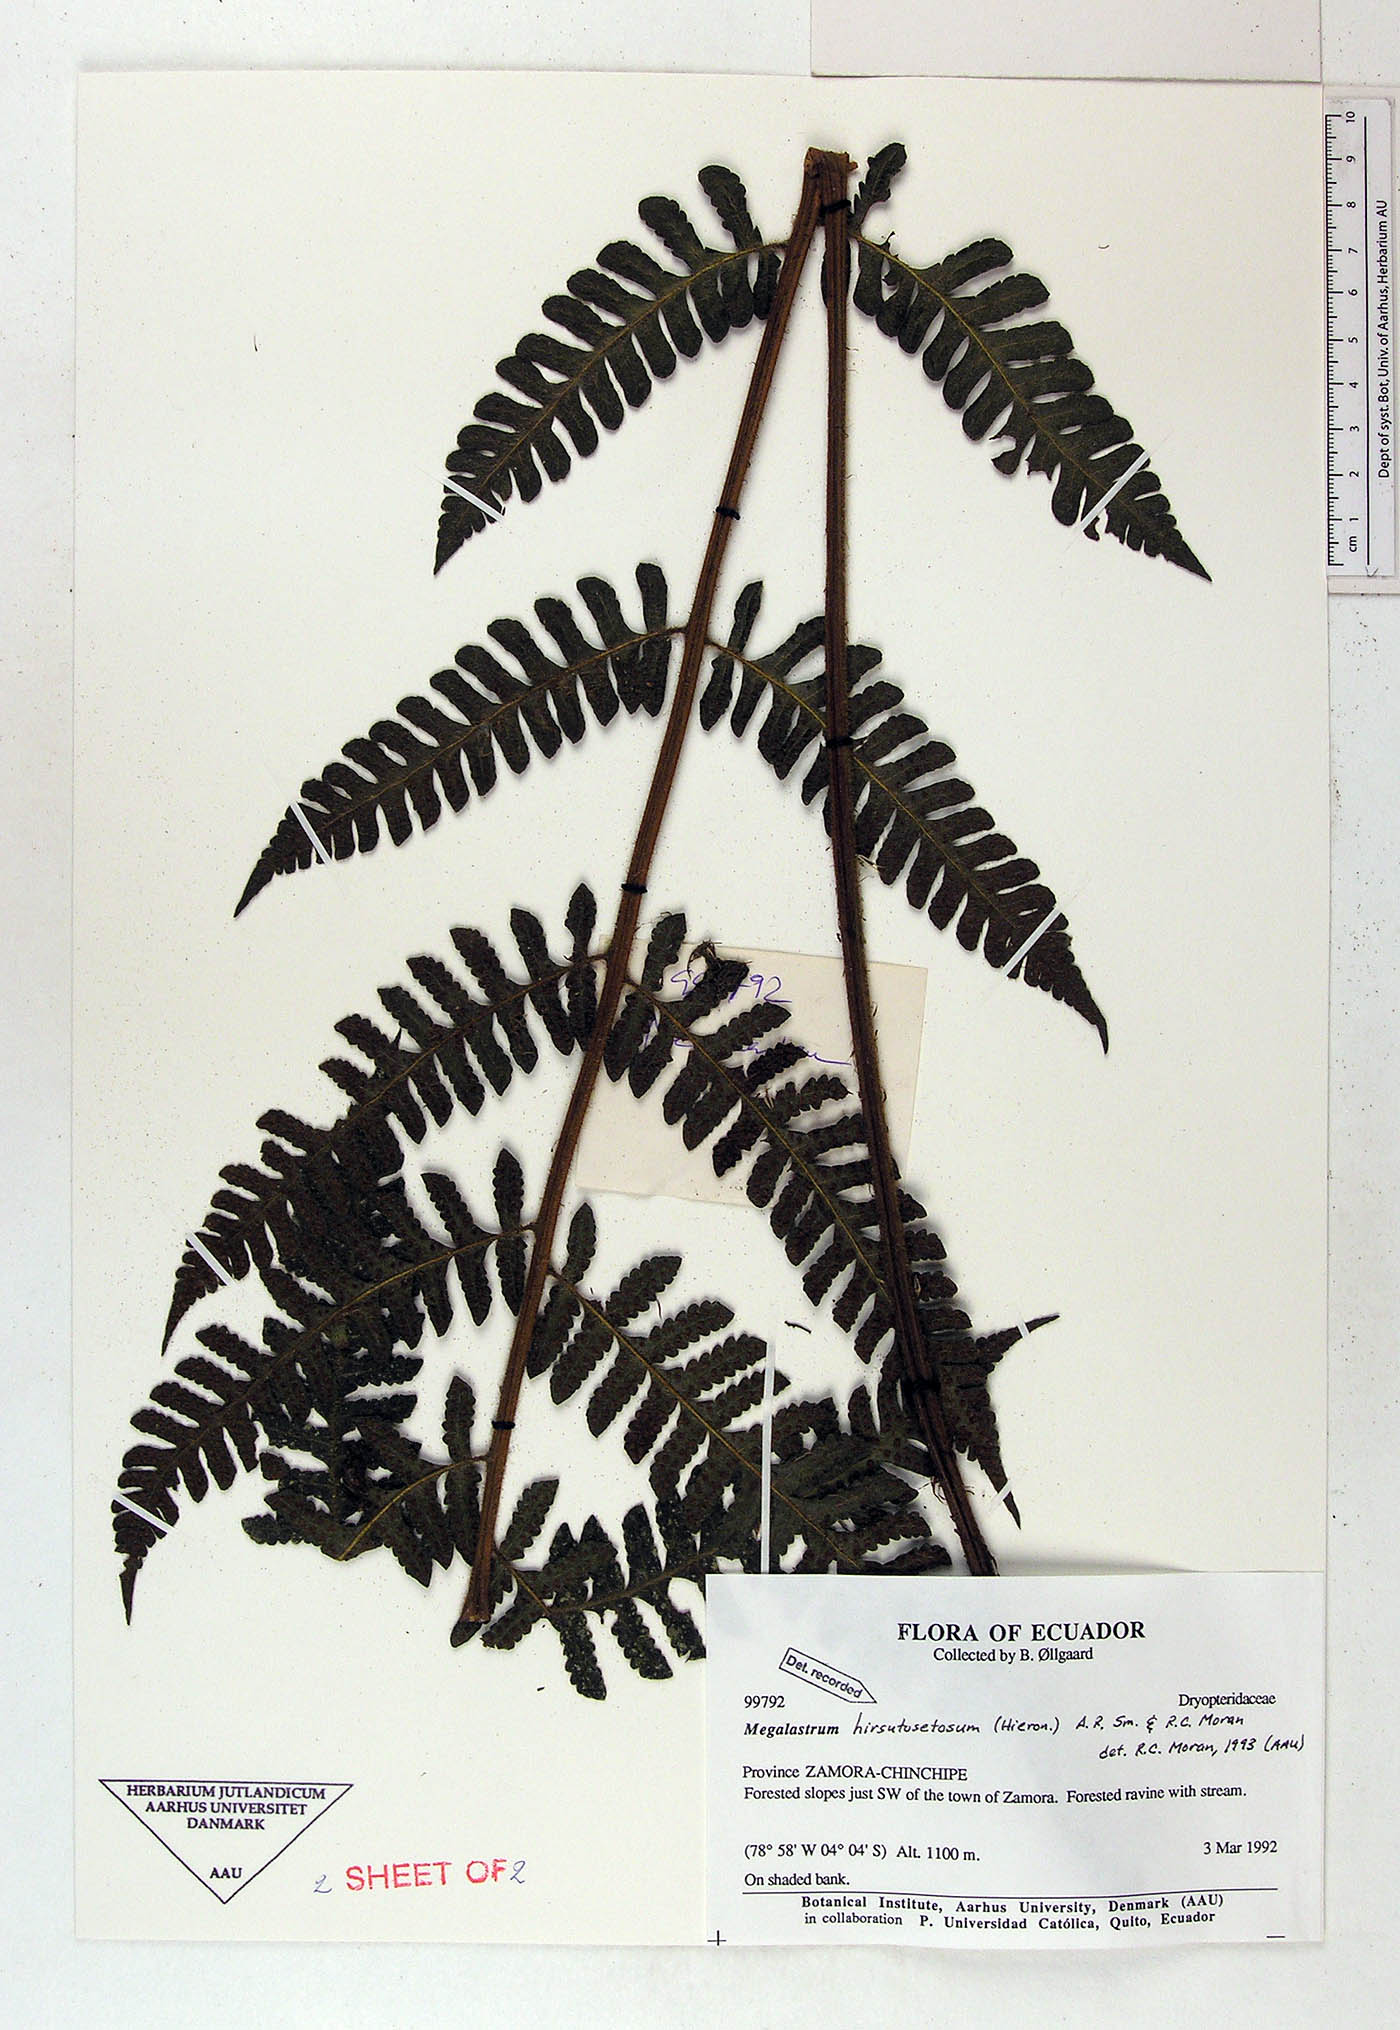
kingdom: Plantae
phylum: Tracheophyta
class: Polypodiopsida
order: Polypodiales
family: Dryopteridaceae
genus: Megalastrum
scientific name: Megalastrum hirsutosetosum
